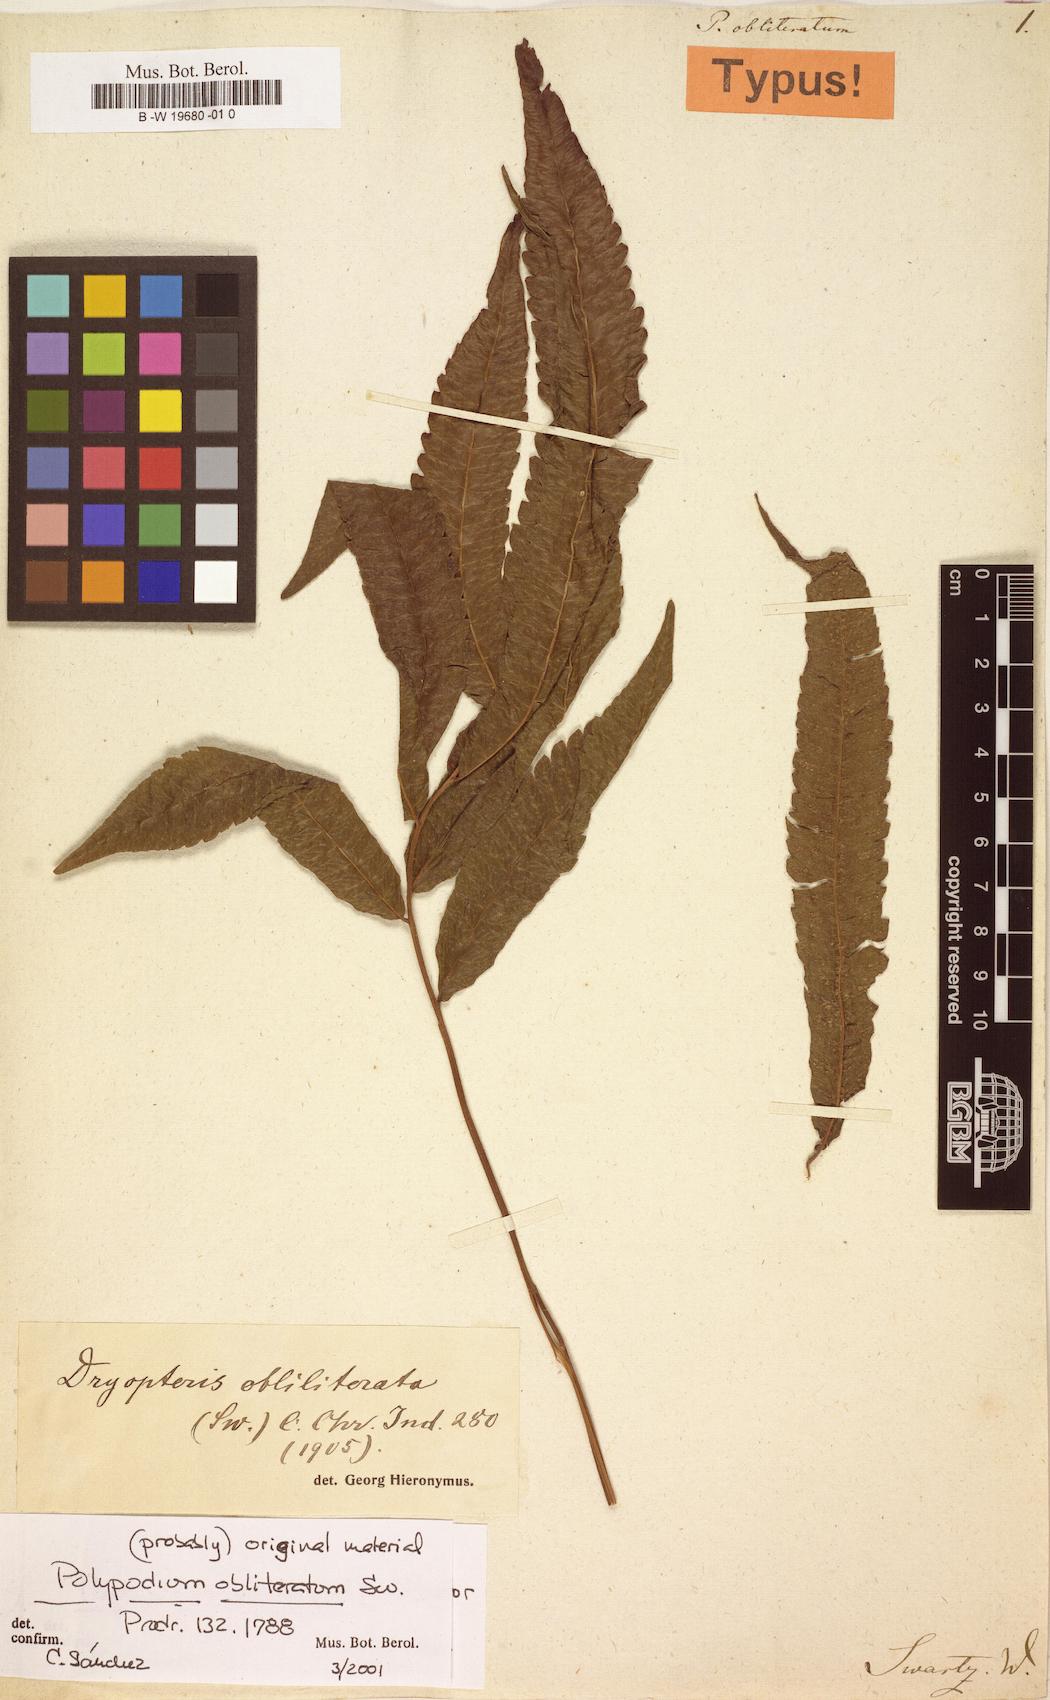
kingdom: Plantae
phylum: Tracheophyta
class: Polypodiopsida
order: Polypodiales
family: Thelypteridaceae
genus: Goniopteris
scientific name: Goniopteris obliterata
